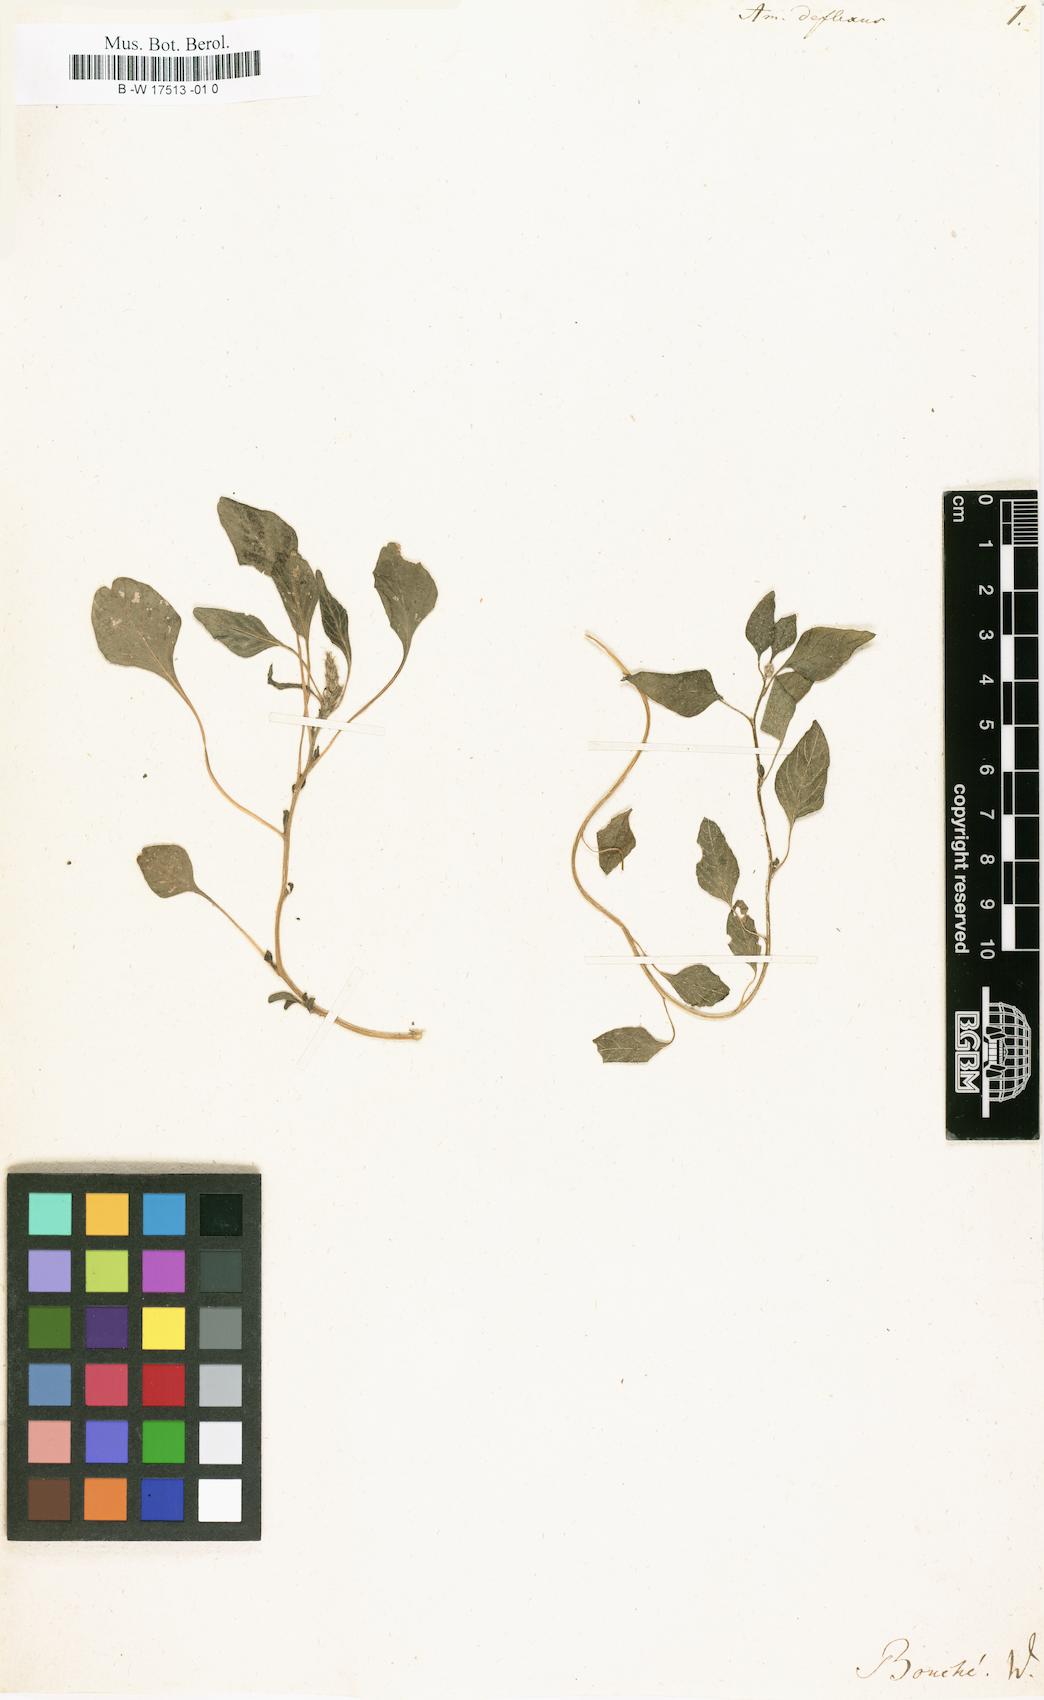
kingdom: Plantae
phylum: Tracheophyta
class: Magnoliopsida
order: Caryophyllales
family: Amaranthaceae
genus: Amaranthus
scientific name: Amaranthus deflexus
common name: Perennial pigweed
